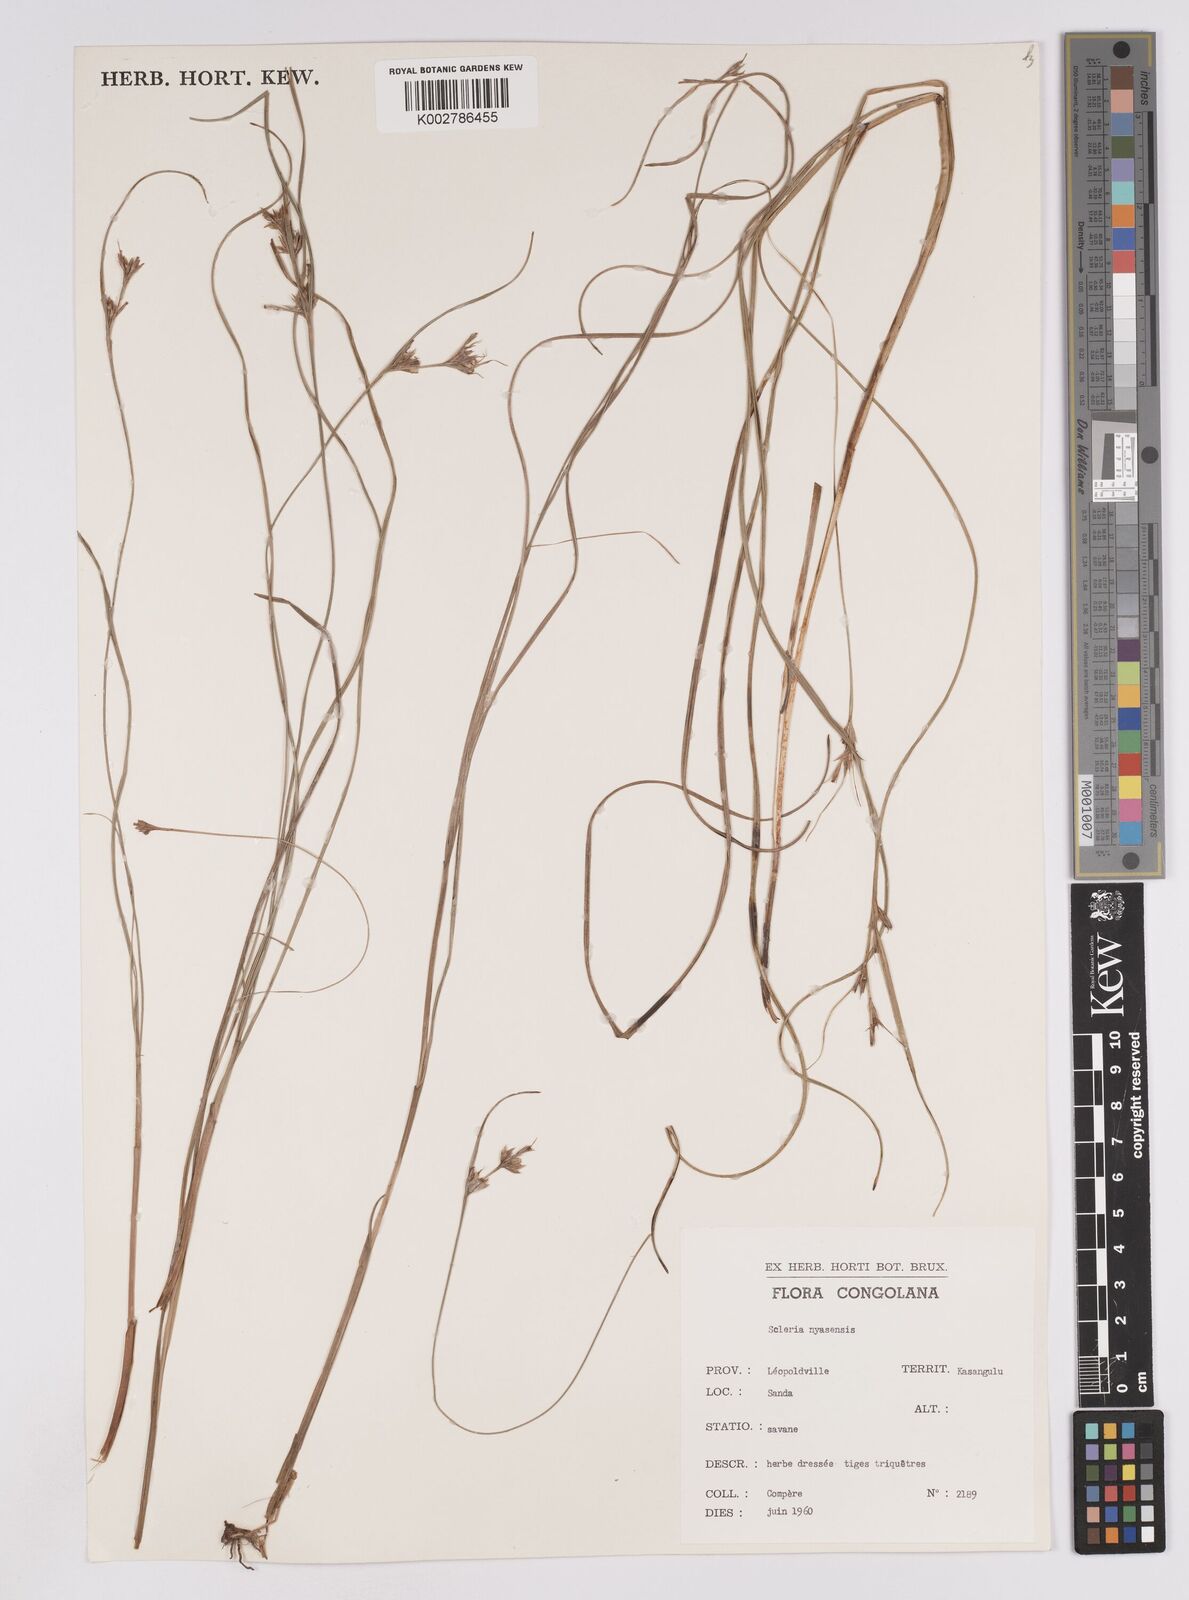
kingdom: Plantae
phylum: Tracheophyta
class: Liliopsida
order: Poales
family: Cyperaceae
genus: Scleria
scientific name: Scleria nyasensis
